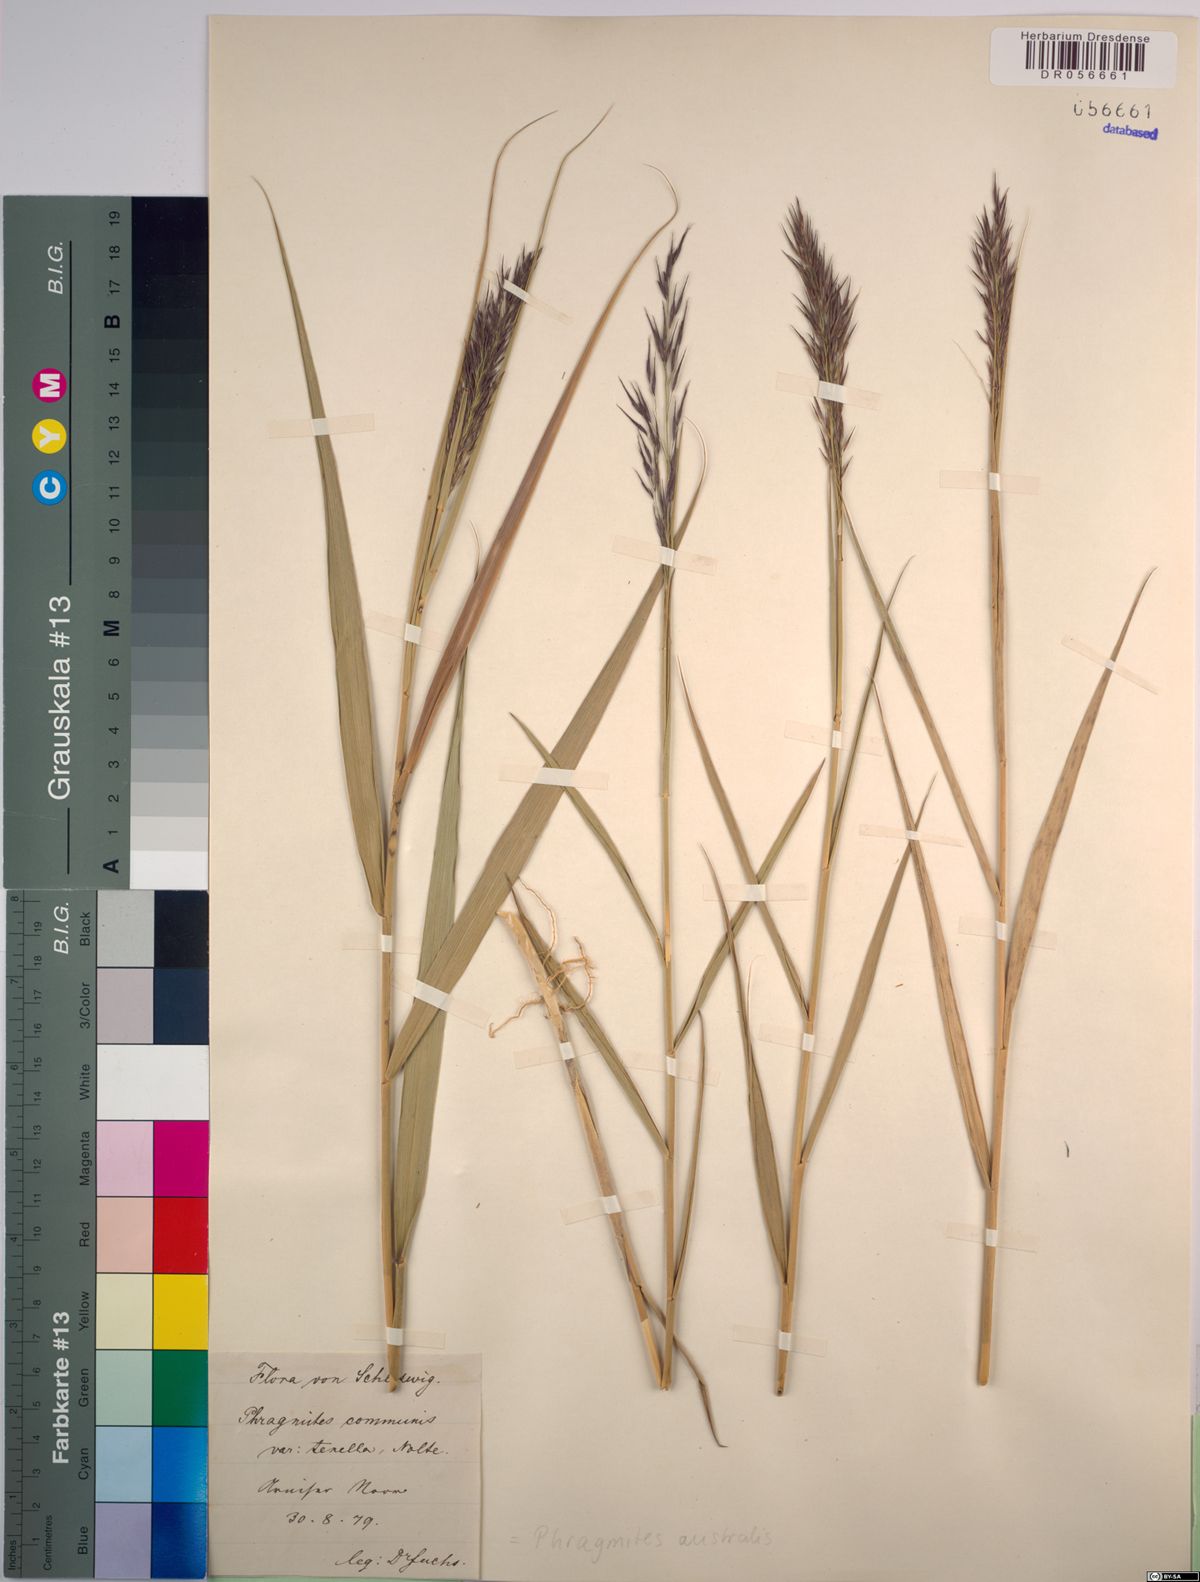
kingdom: Plantae
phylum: Tracheophyta
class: Liliopsida
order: Poales
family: Poaceae
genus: Phragmites
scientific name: Phragmites australis
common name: Common reed
